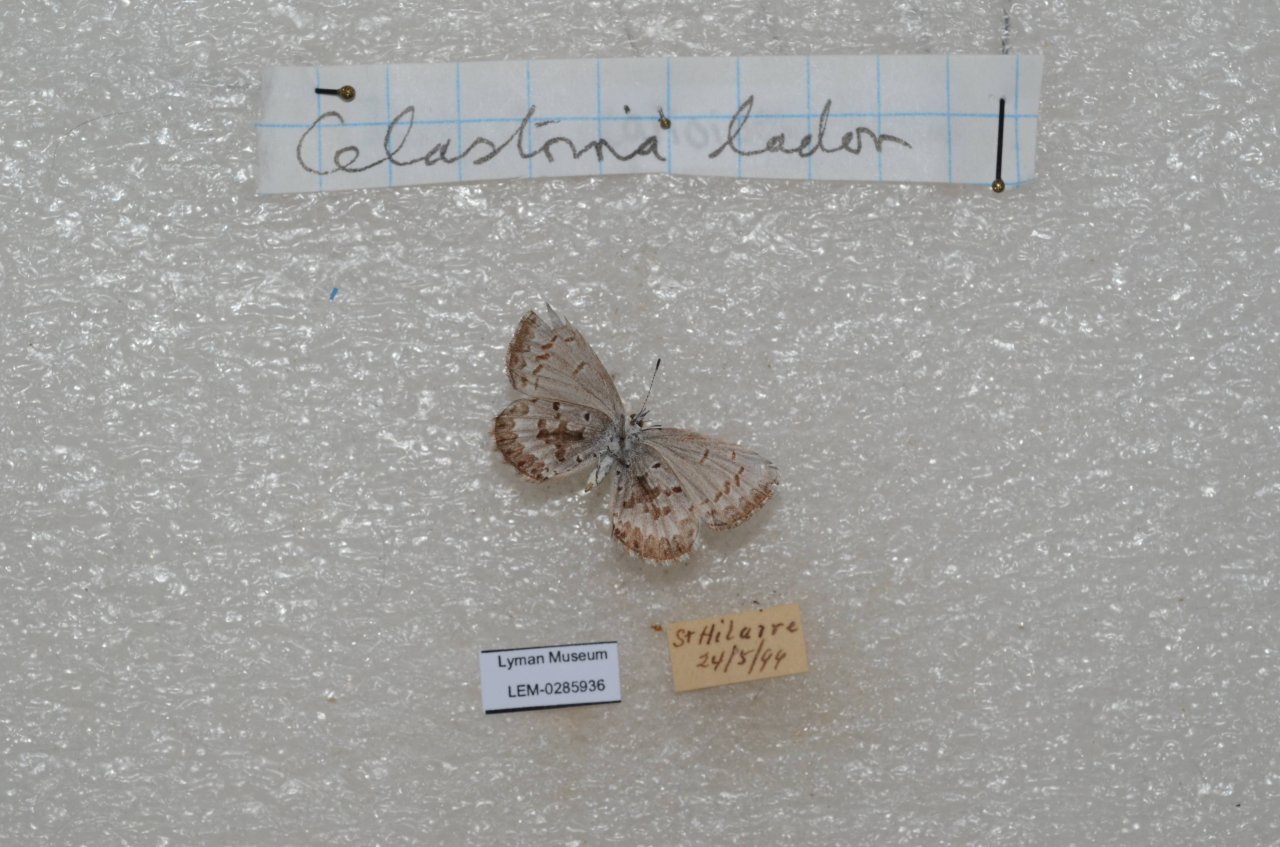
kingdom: Animalia
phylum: Arthropoda
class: Insecta
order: Lepidoptera
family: Lycaenidae
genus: Celastrina
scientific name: Celastrina lucia
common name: Northern Spring Azure
